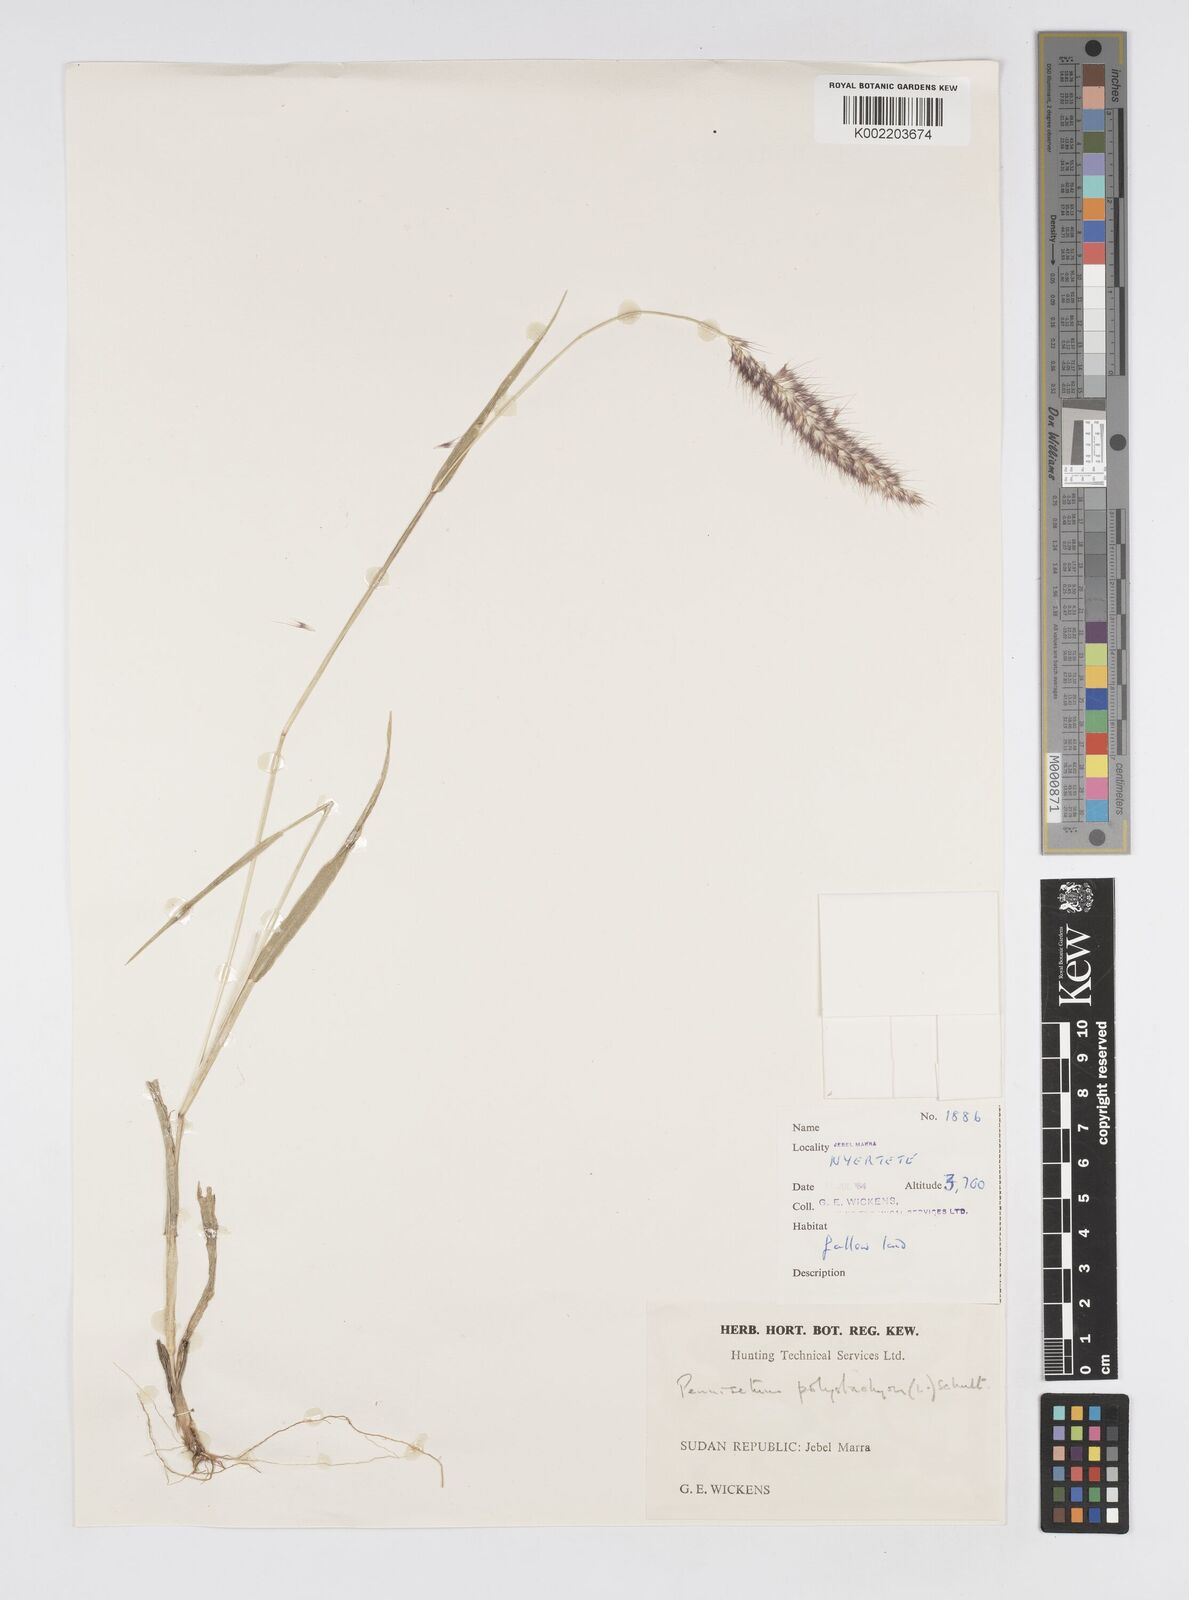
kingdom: Plantae
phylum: Tracheophyta
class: Liliopsida
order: Poales
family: Poaceae
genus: Setaria
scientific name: Setaria parviflora
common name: Knotroot bristle-grass
